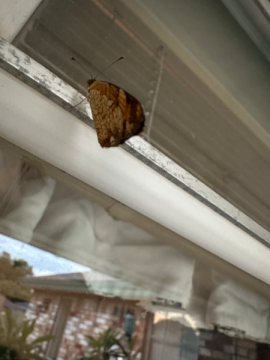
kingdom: Animalia
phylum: Arthropoda
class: Insecta
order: Lepidoptera
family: Nymphalidae
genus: Phyciodes
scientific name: Phyciodes tharos
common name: Pearl Crescent
